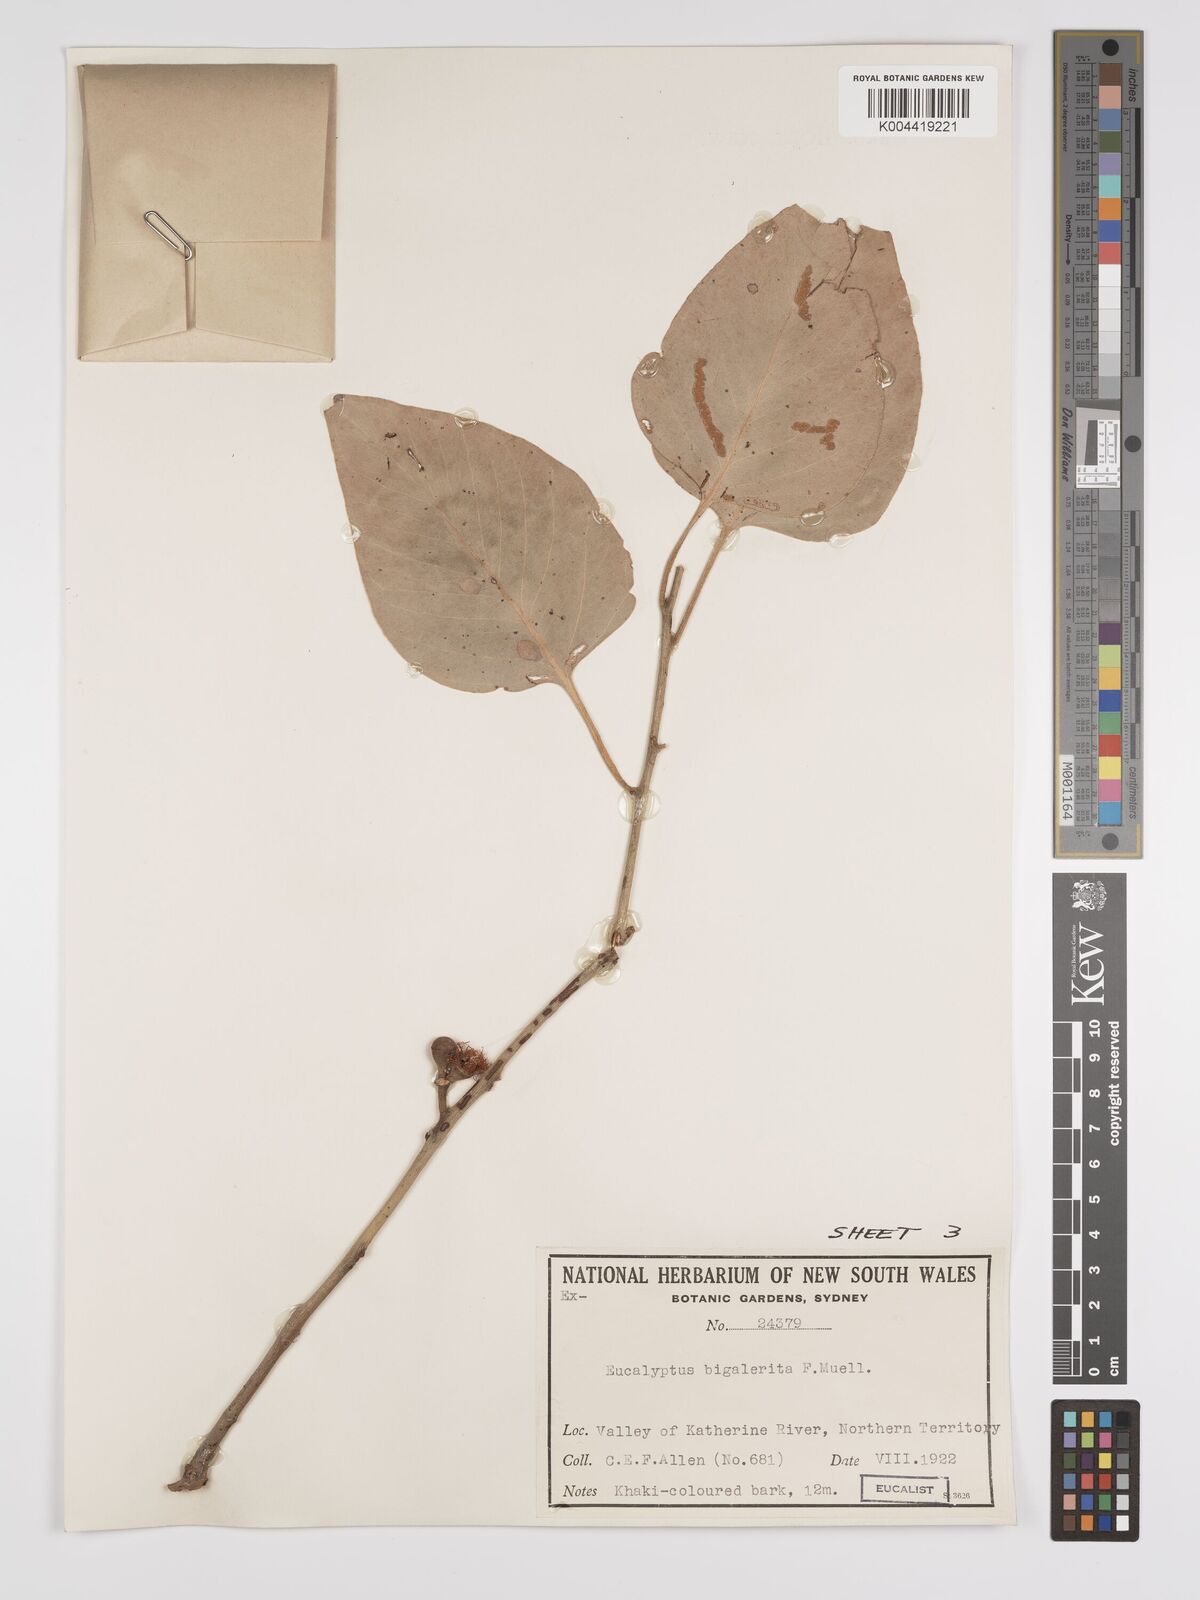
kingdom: Plantae
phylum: Tracheophyta
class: Magnoliopsida
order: Myrtales
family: Myrtaceae
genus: Eucalyptus
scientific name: Eucalyptus bigalerita
